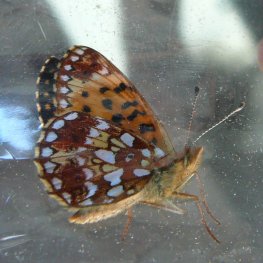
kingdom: Animalia
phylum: Arthropoda
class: Insecta
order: Lepidoptera
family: Nymphalidae
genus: Boloria
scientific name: Boloria selene
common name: Silver-bordered Fritillary
